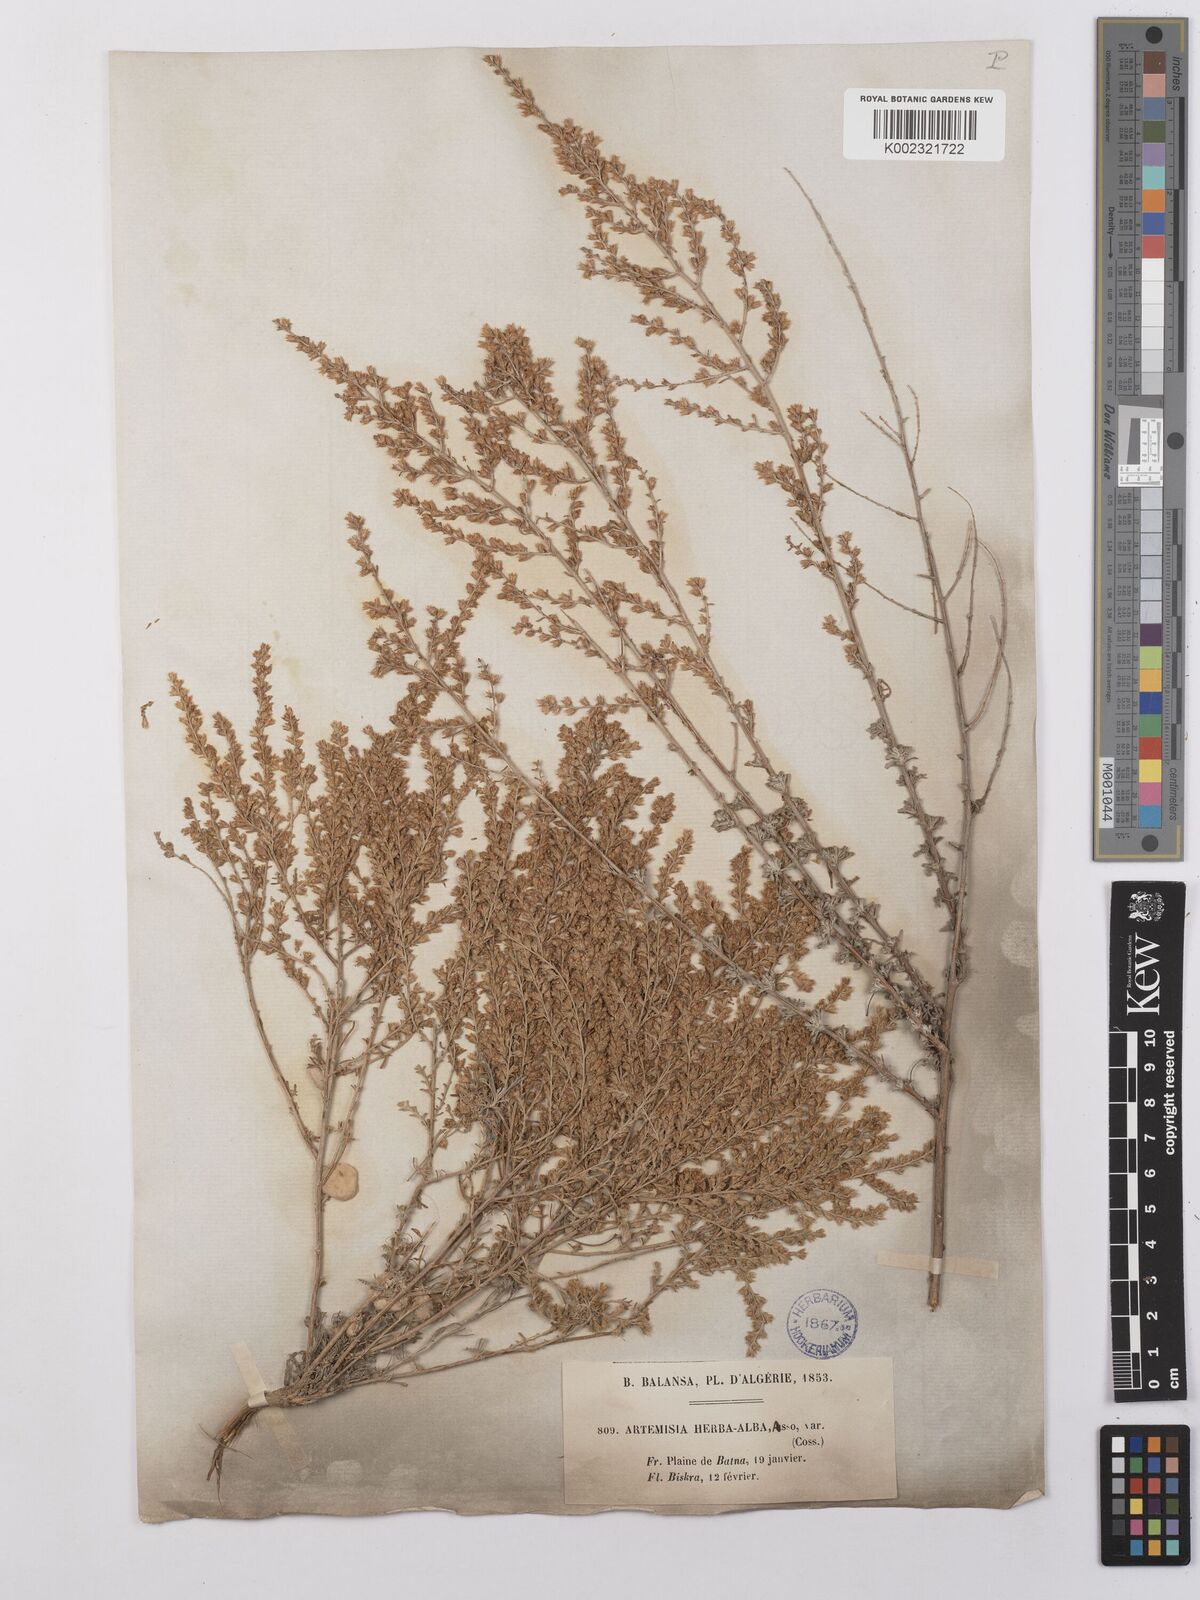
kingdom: Plantae
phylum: Tracheophyta
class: Magnoliopsida
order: Asterales
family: Asteraceae
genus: Artemisia
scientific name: Artemisia herba-alba
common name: White wormwood
